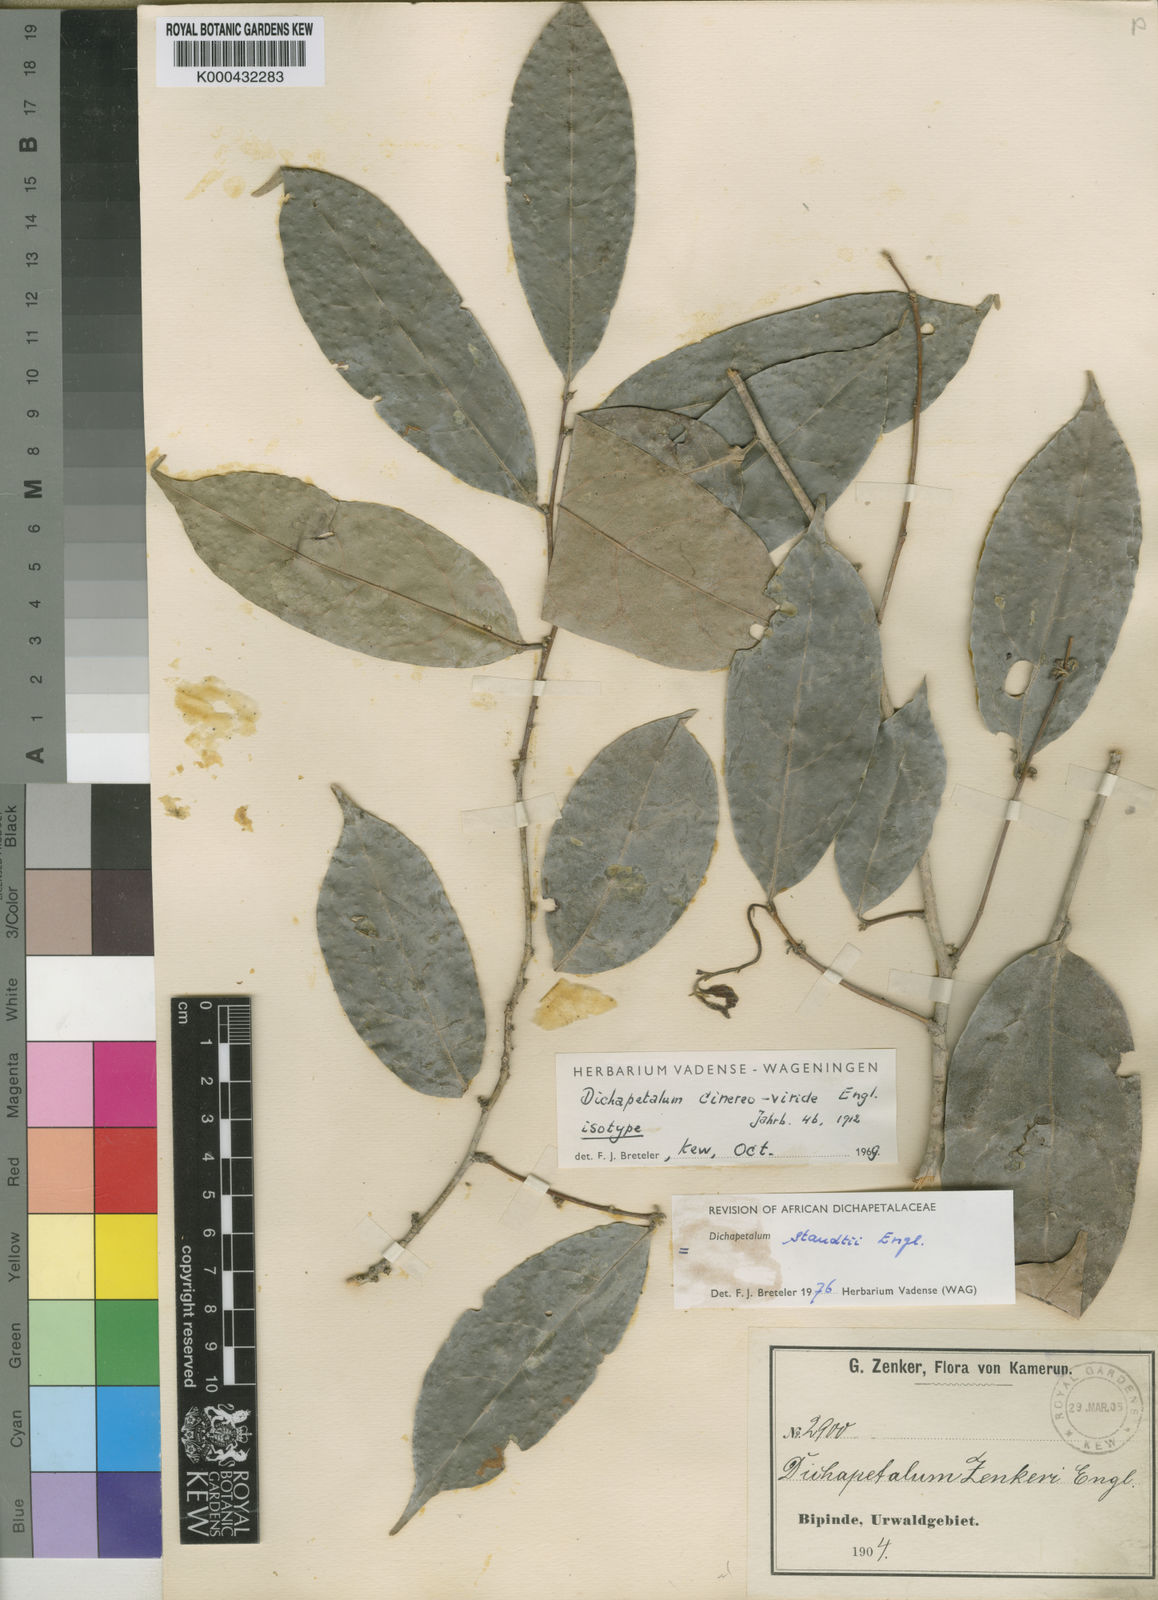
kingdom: Plantae
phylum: Tracheophyta
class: Magnoliopsida
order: Malpighiales
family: Dichapetalaceae
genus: Dichapetalum
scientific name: Dichapetalum staudtii
